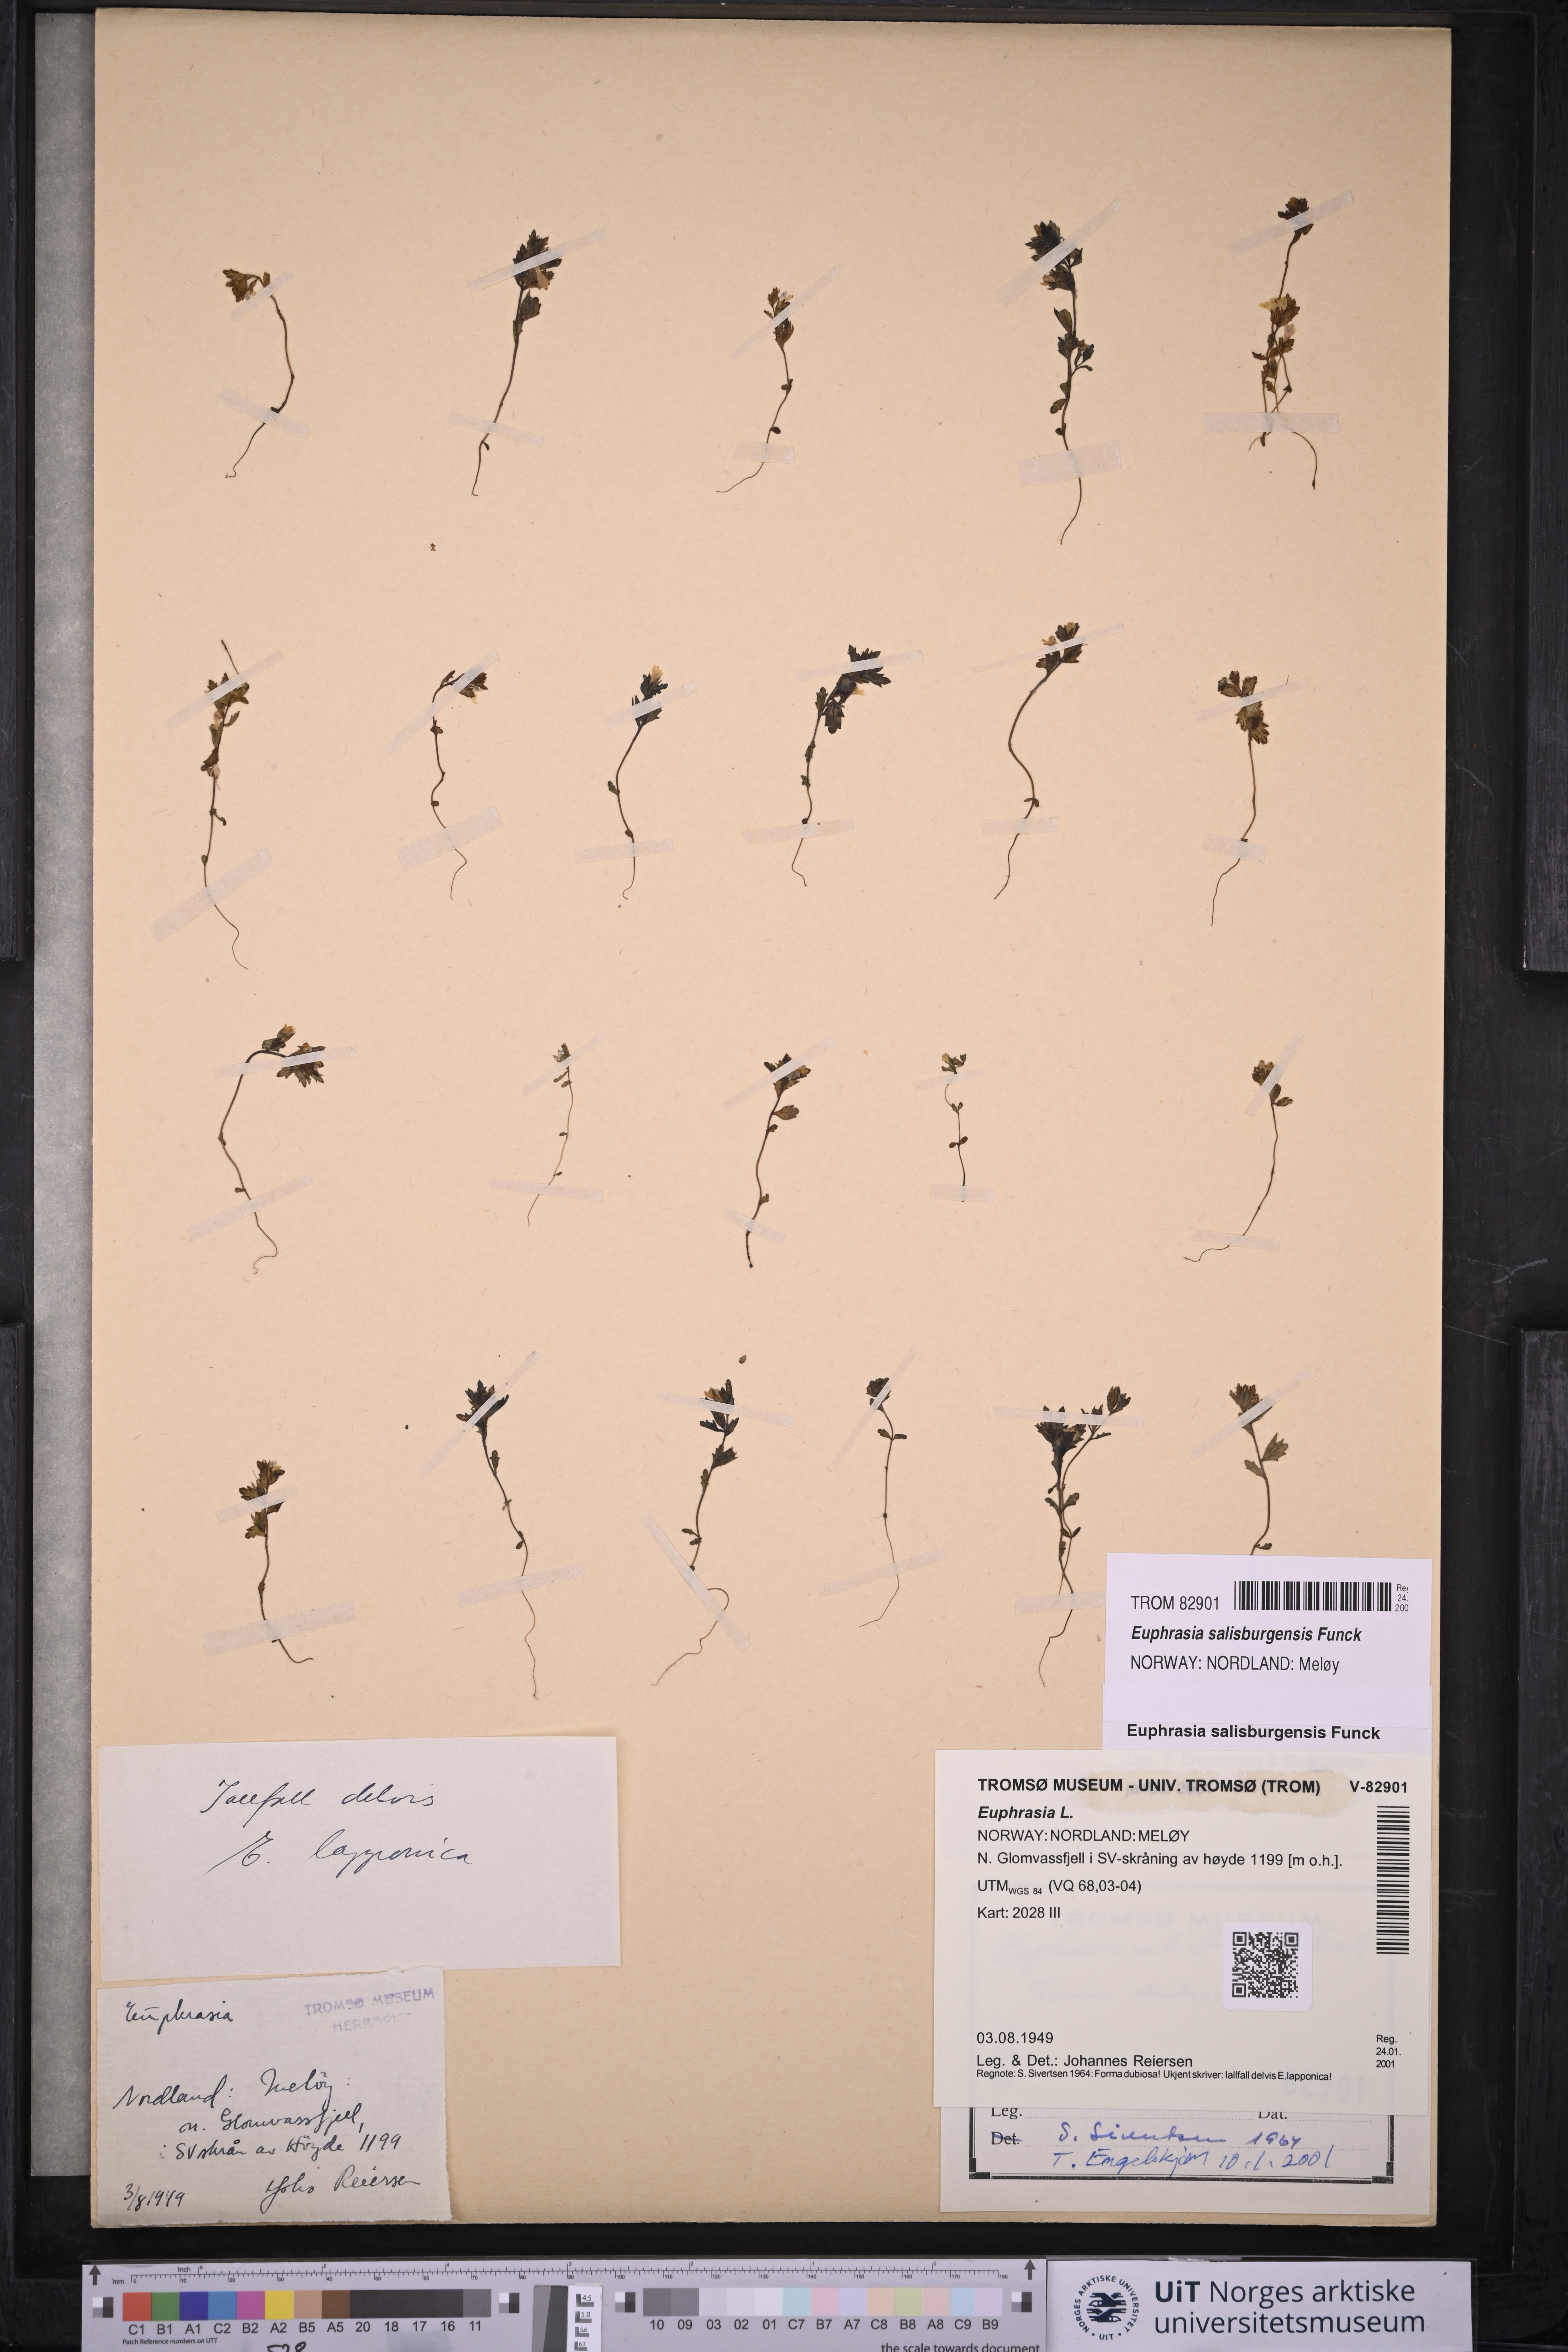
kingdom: Plantae
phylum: Tracheophyta
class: Magnoliopsida
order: Lamiales
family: Orobanchaceae
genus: Euphrasia
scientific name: Euphrasia salisburgensis
